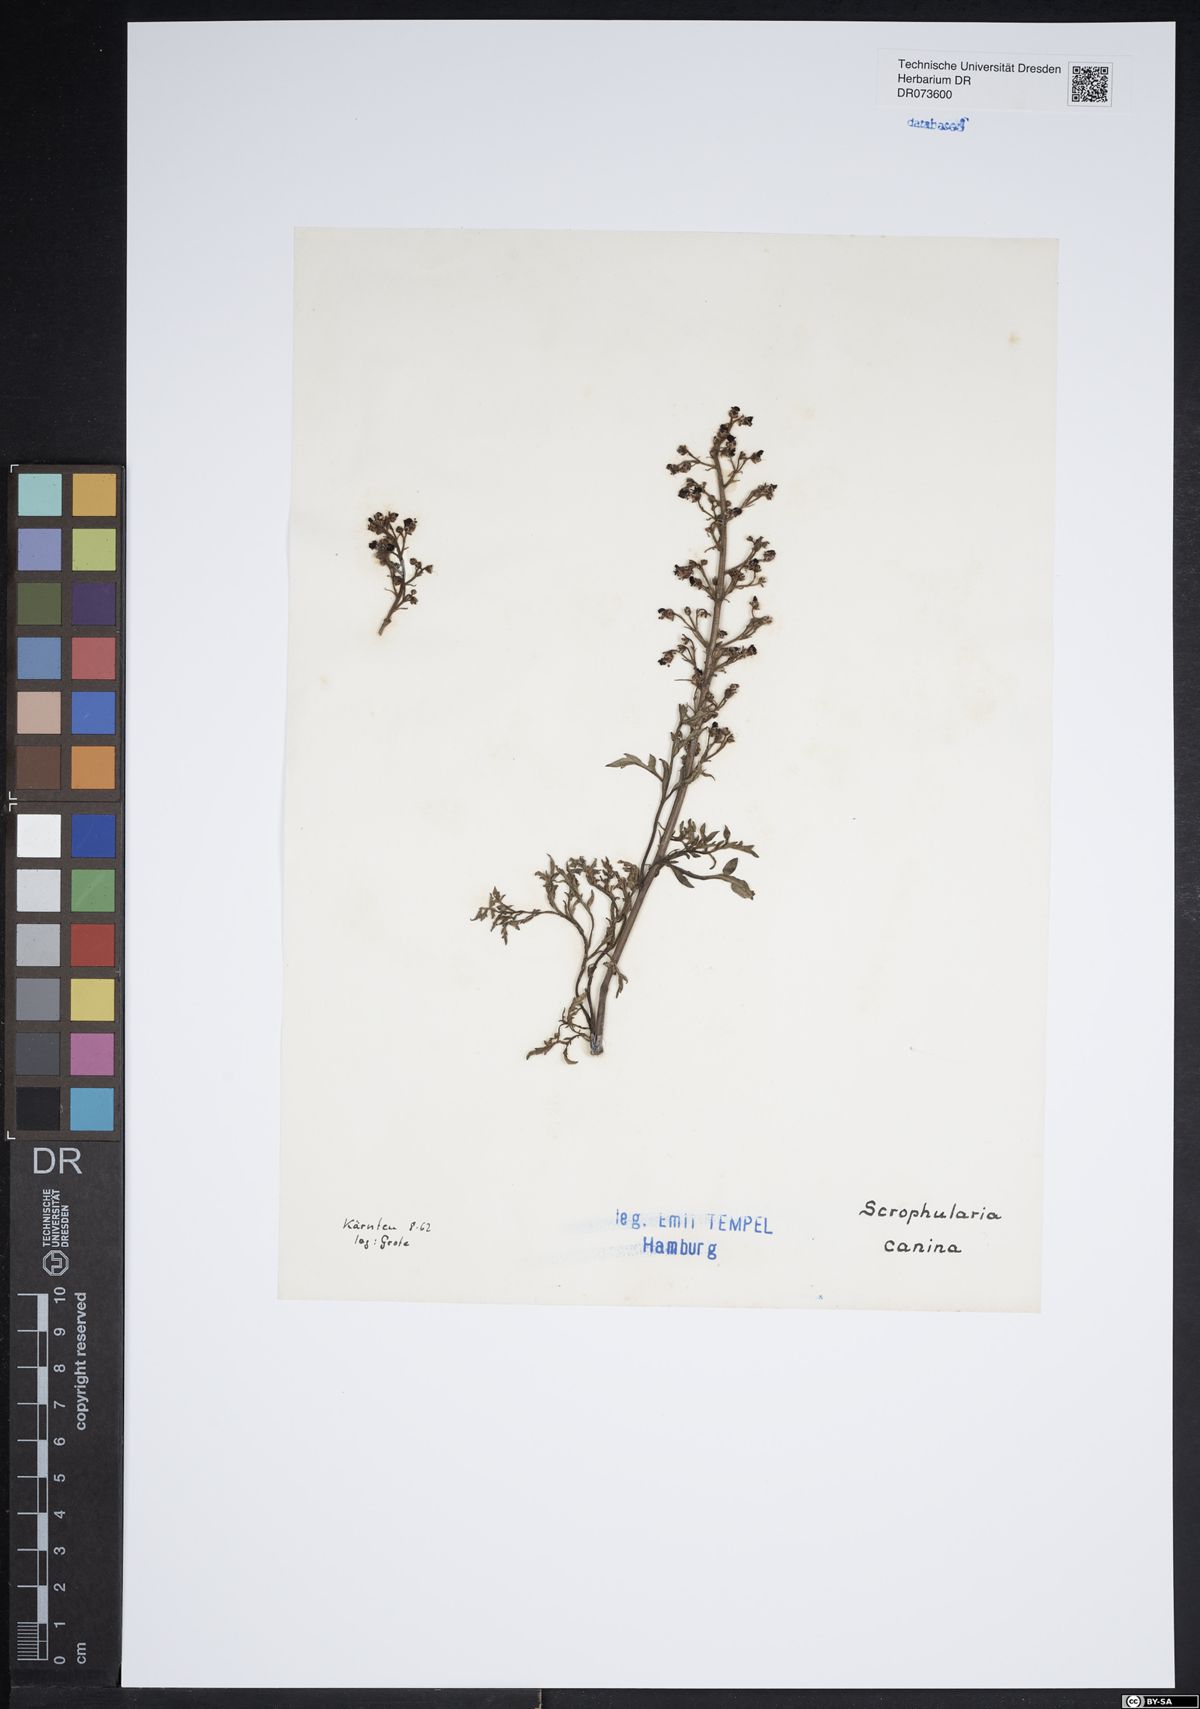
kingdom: Plantae
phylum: Tracheophyta
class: Magnoliopsida
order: Lamiales
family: Scrophulariaceae
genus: Scrophularia
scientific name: Scrophularia canina
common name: French figwort
